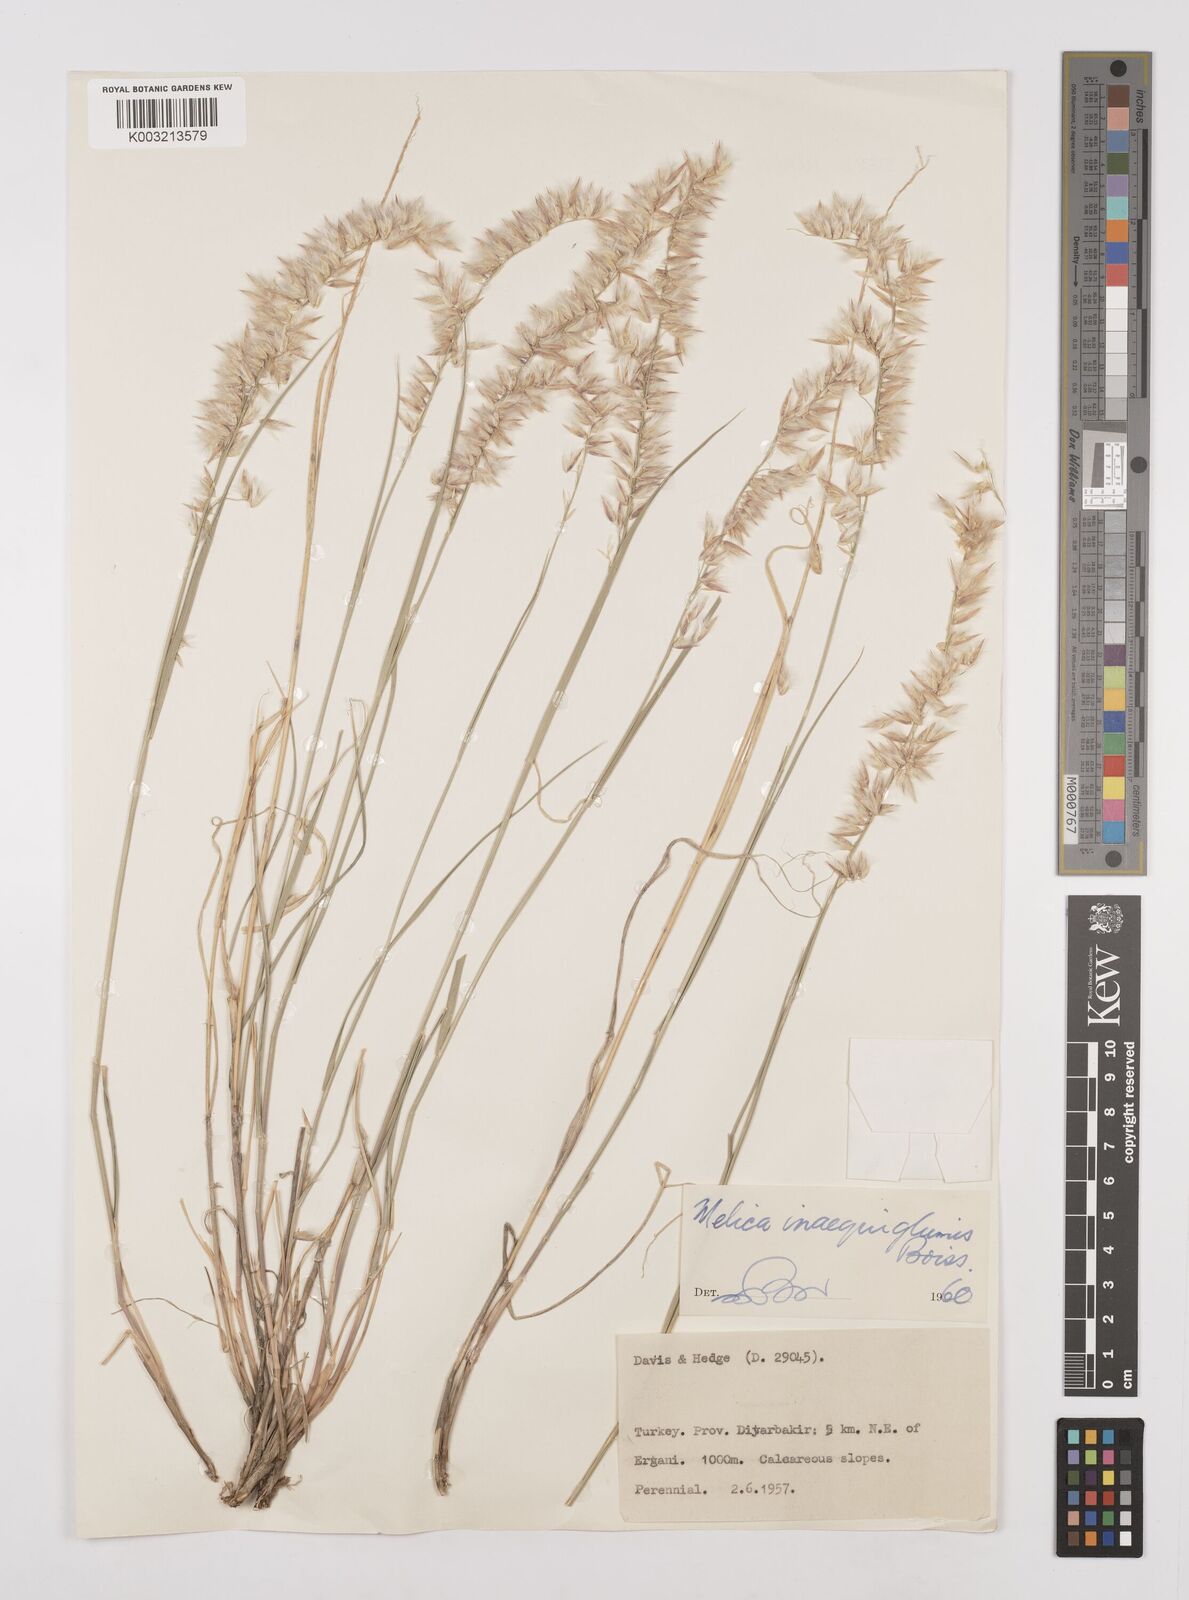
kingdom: Plantae
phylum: Tracheophyta
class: Liliopsida
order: Poales
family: Poaceae
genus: Melica
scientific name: Melica eligulata
